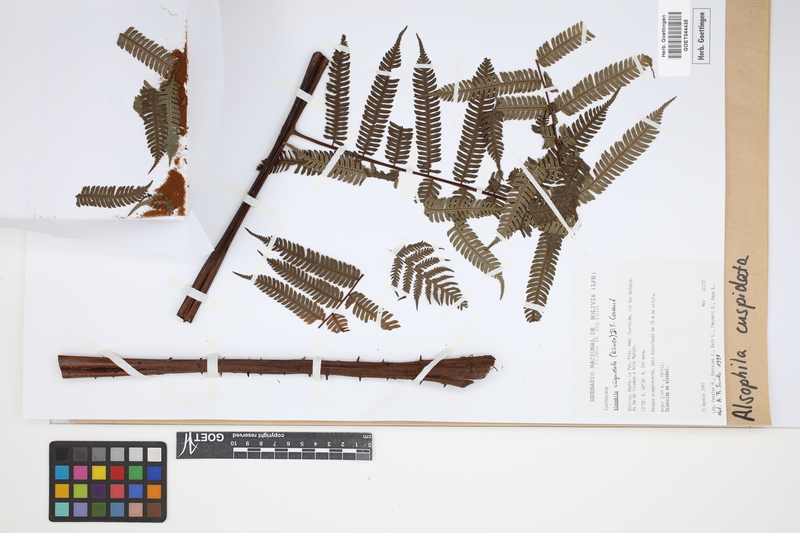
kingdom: Plantae
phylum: Tracheophyta
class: Polypodiopsida
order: Cyatheales
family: Cyatheaceae
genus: Alsophila
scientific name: Alsophila cuspidata
